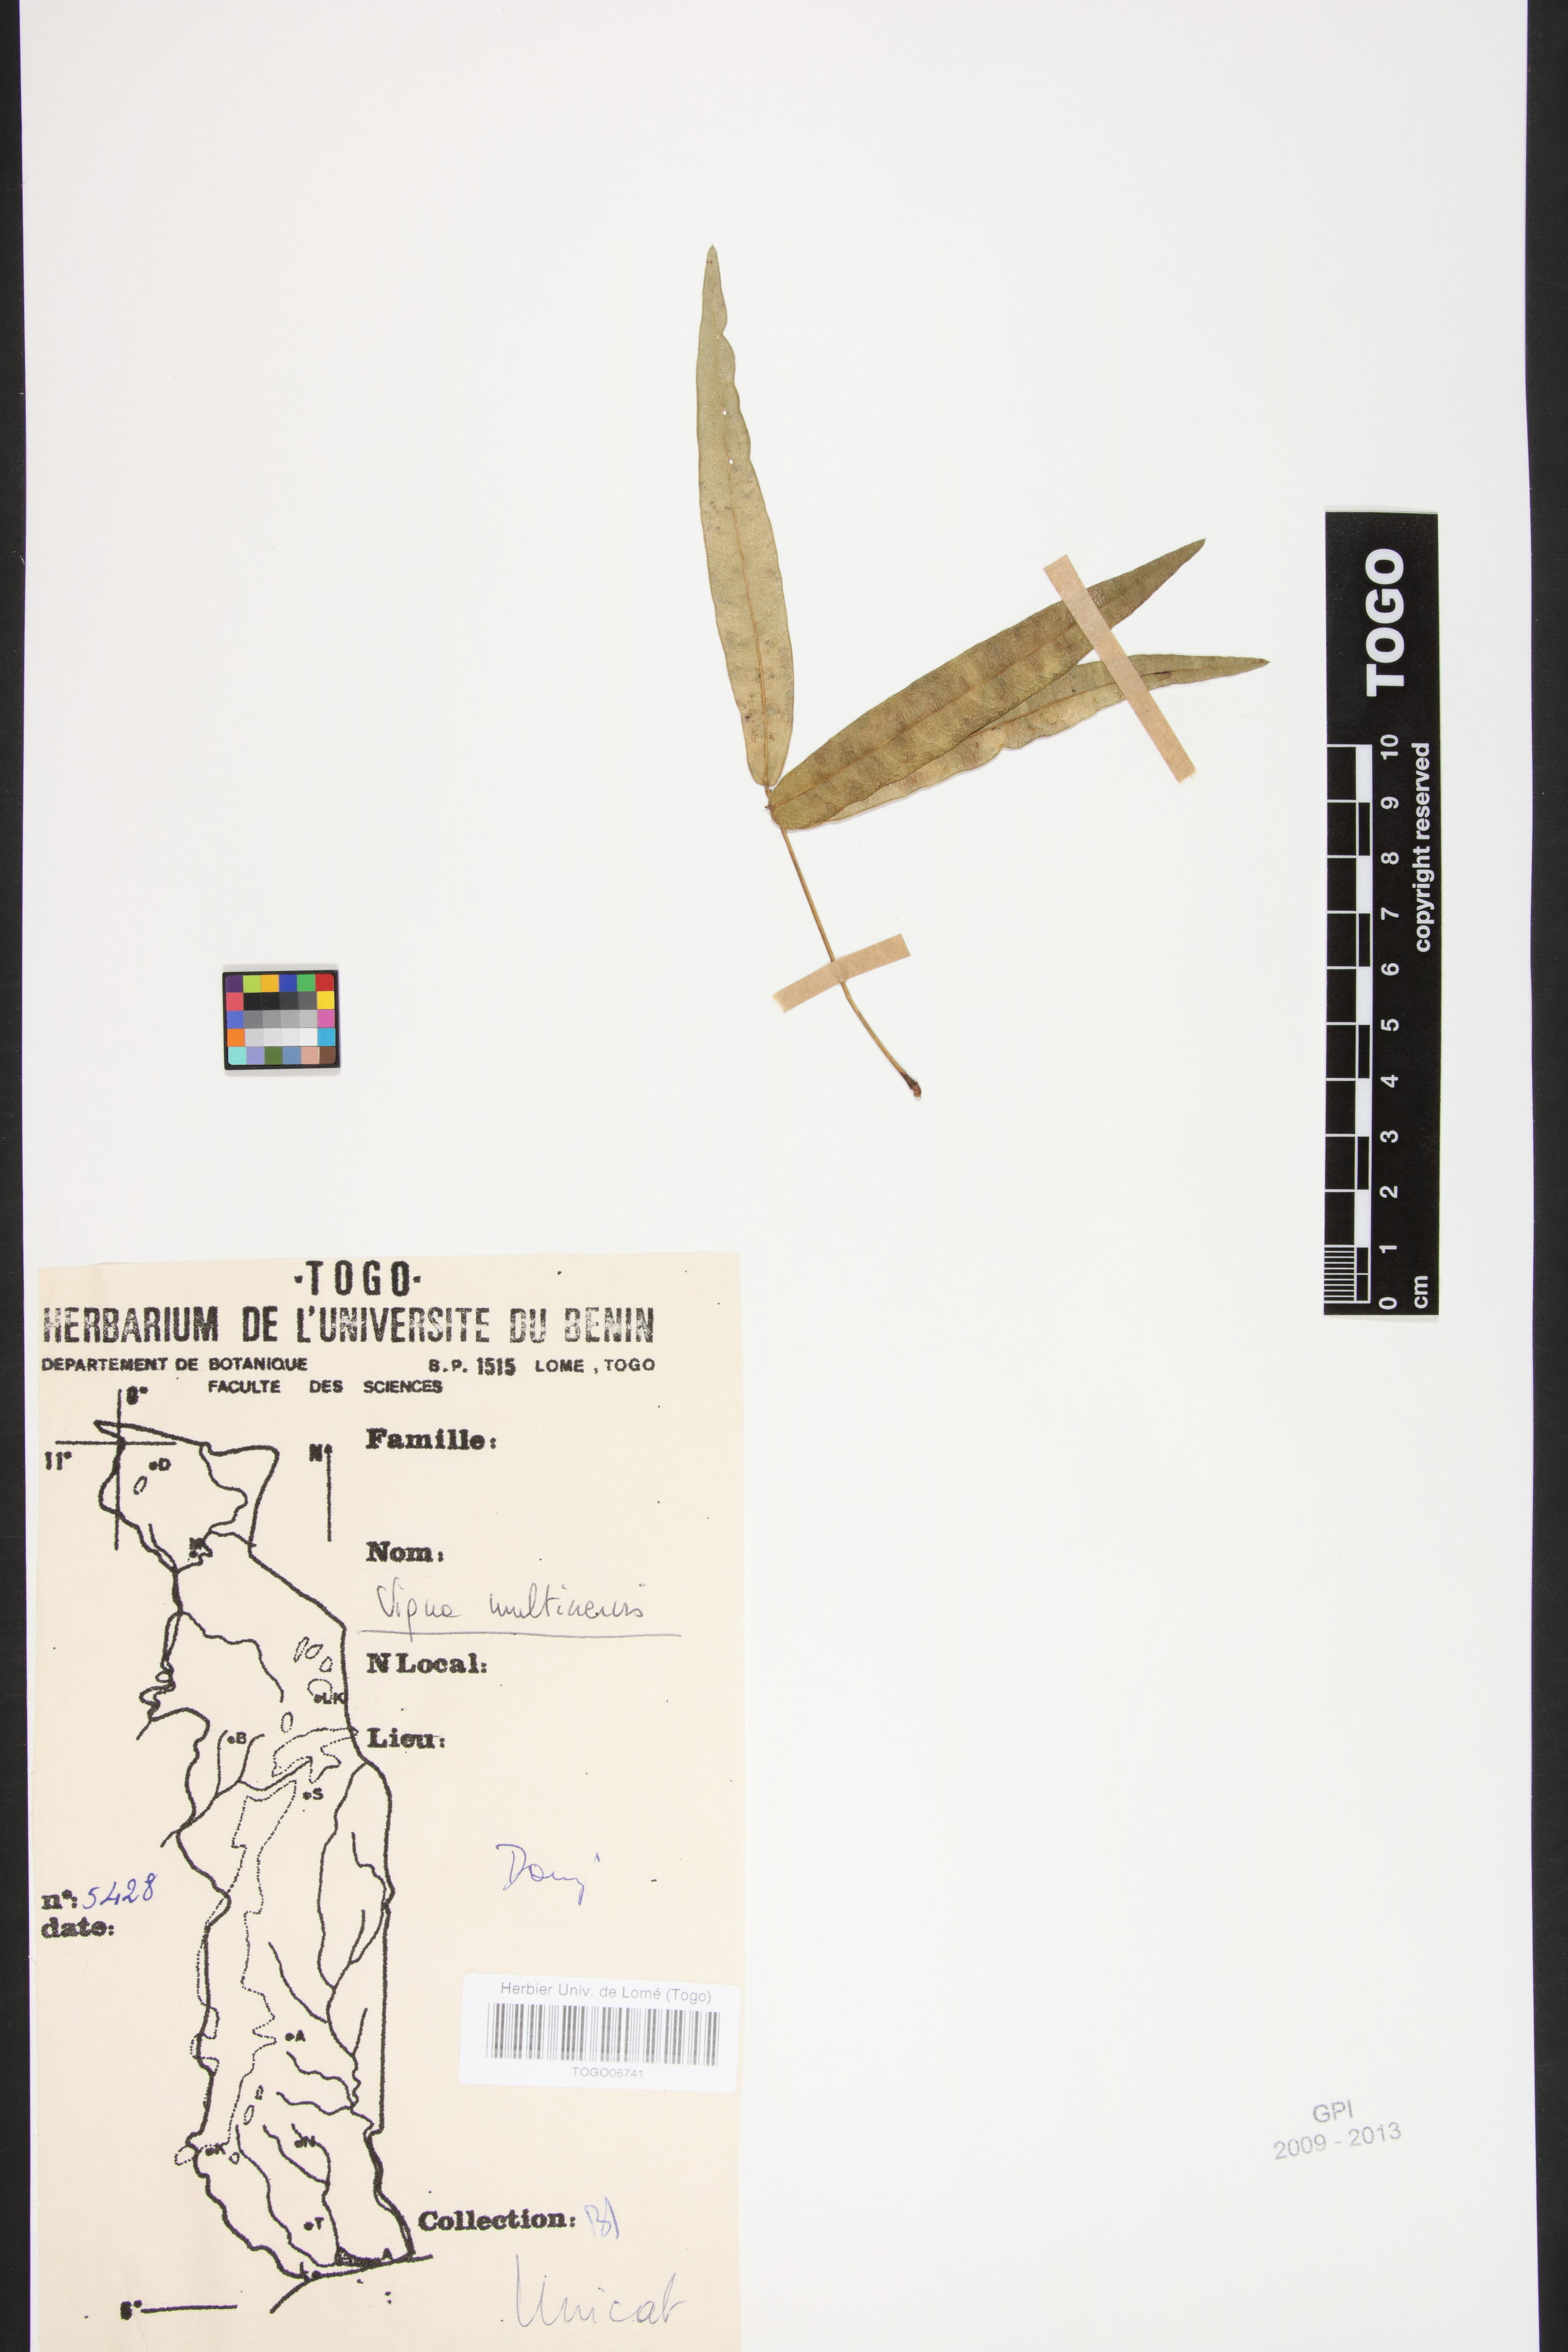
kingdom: Plantae
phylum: Tracheophyta
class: Magnoliopsida
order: Fabales
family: Fabaceae
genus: Vigna
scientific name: Vigna multinervis
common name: Fula-pulaar
